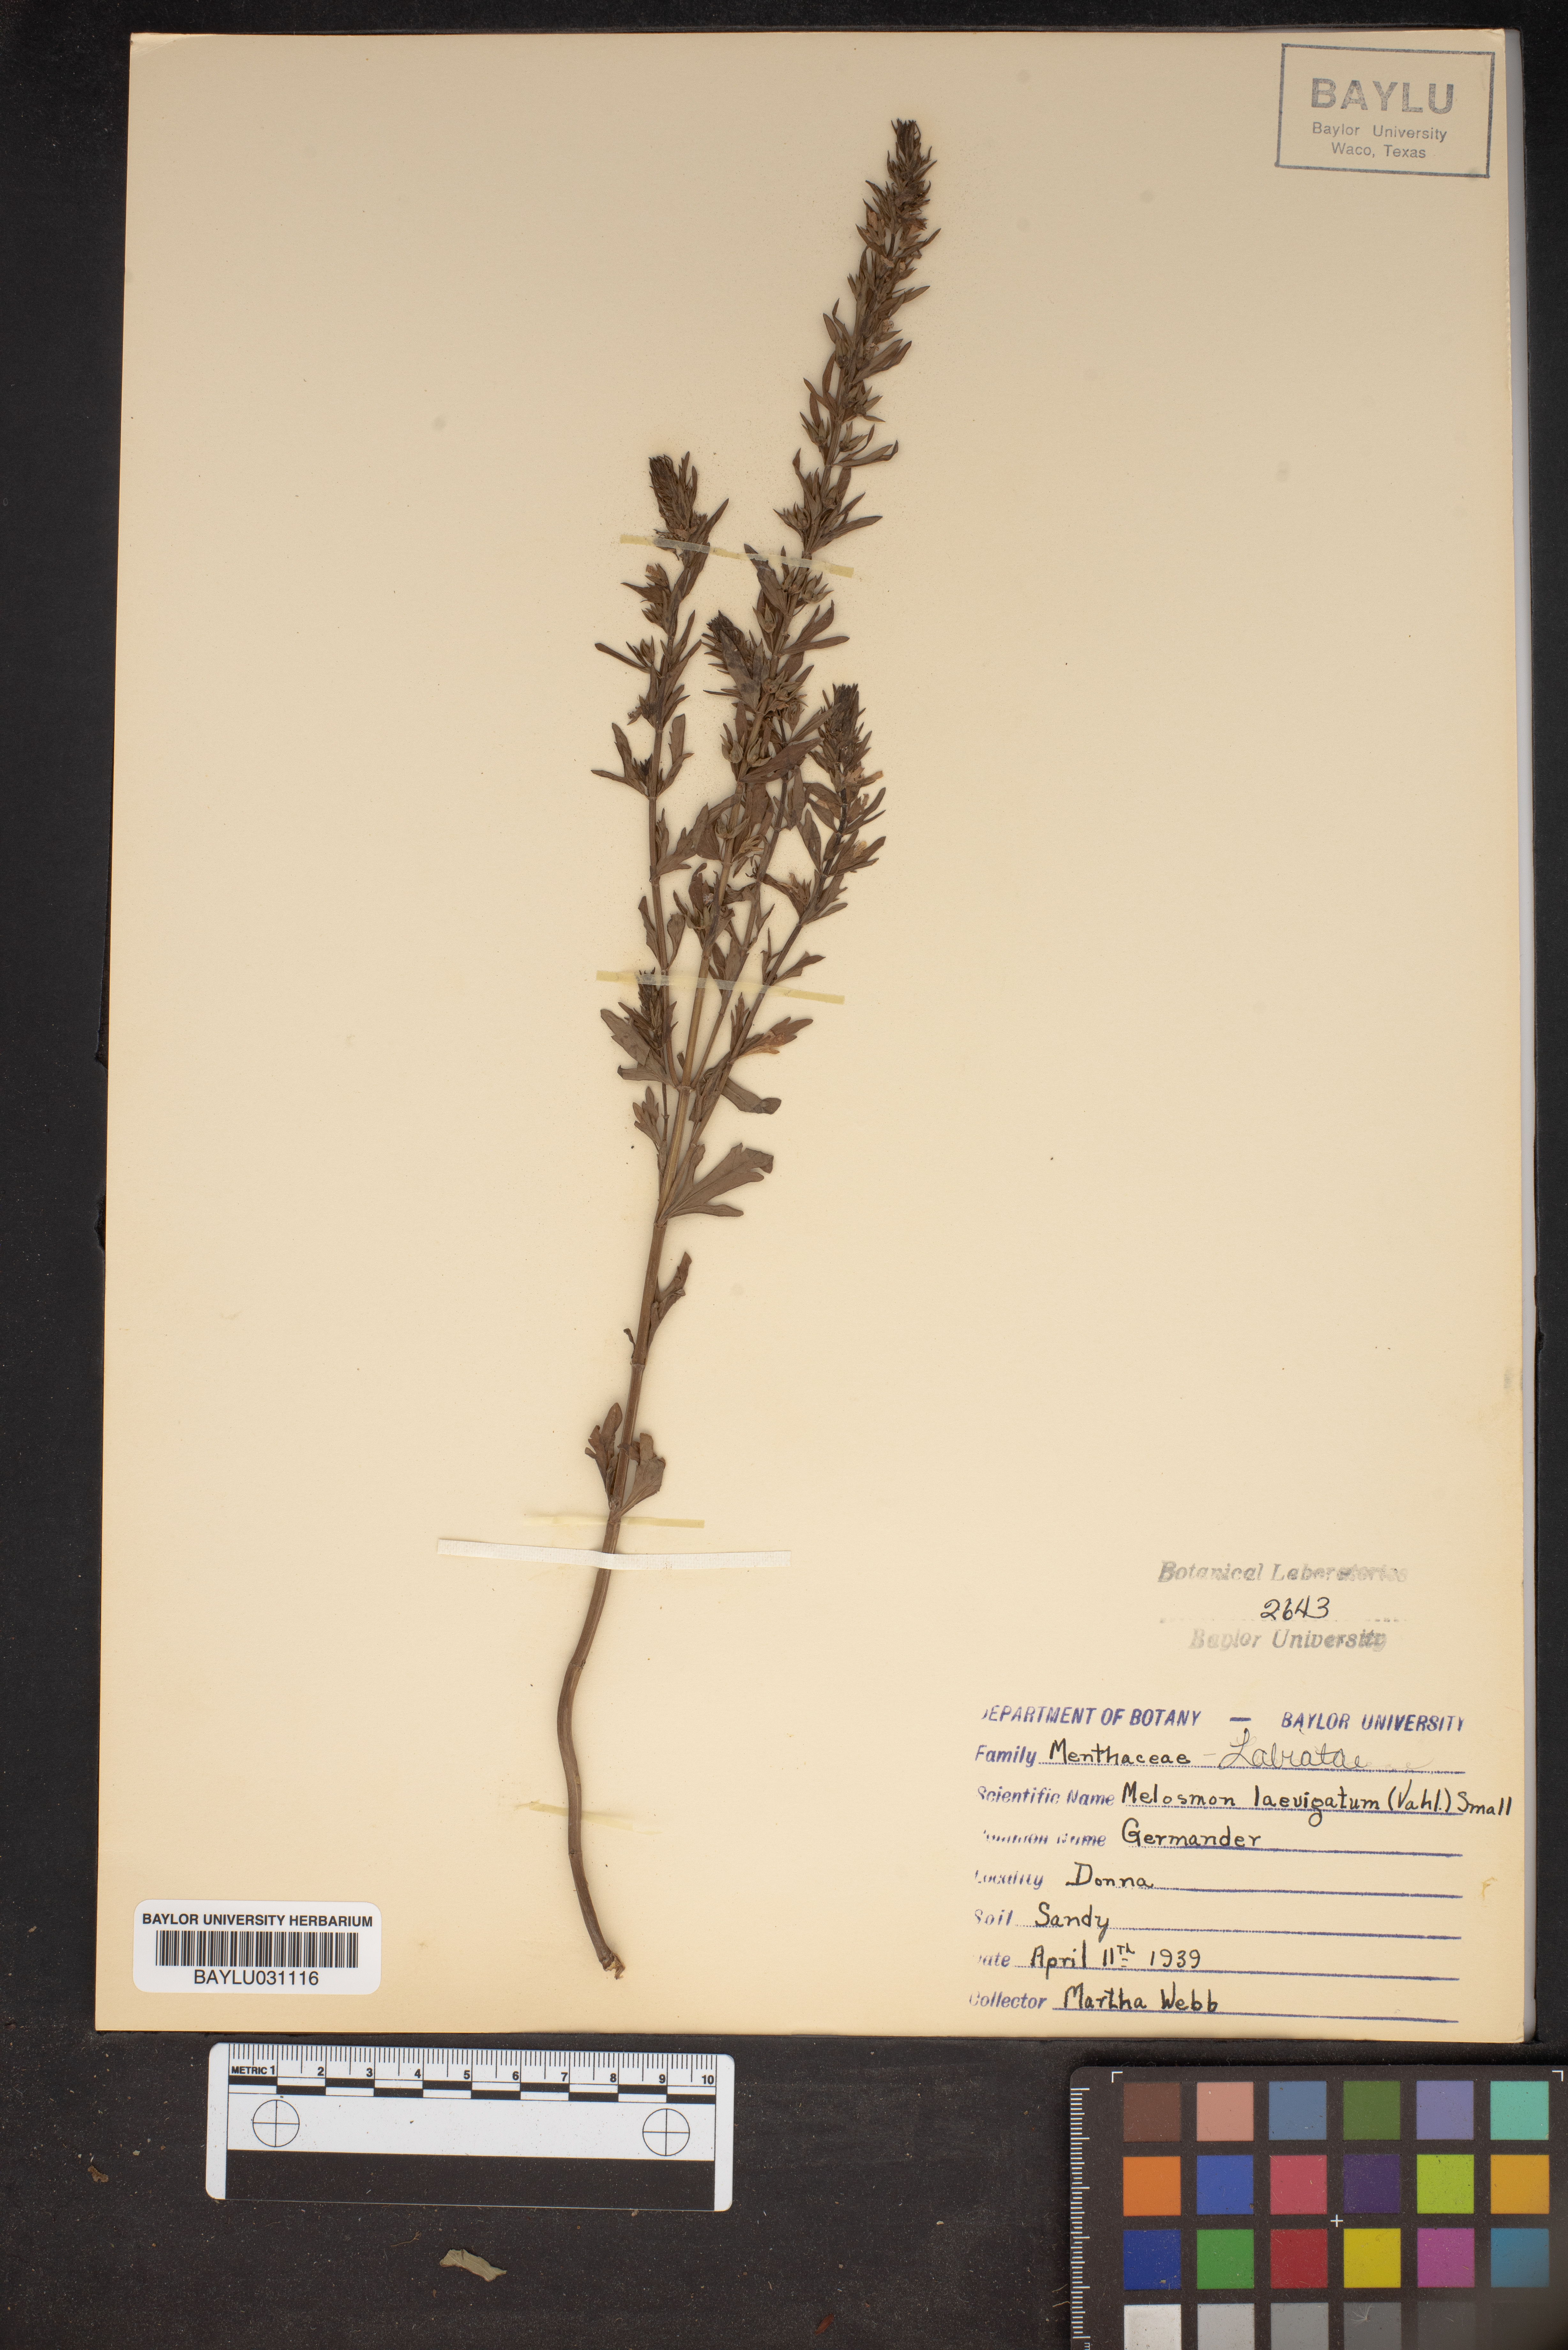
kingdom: Plantae
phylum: Tracheophyta
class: Magnoliopsida
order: Lamiales
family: Lamiaceae
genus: Teucrium
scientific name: Teucrium cubense
